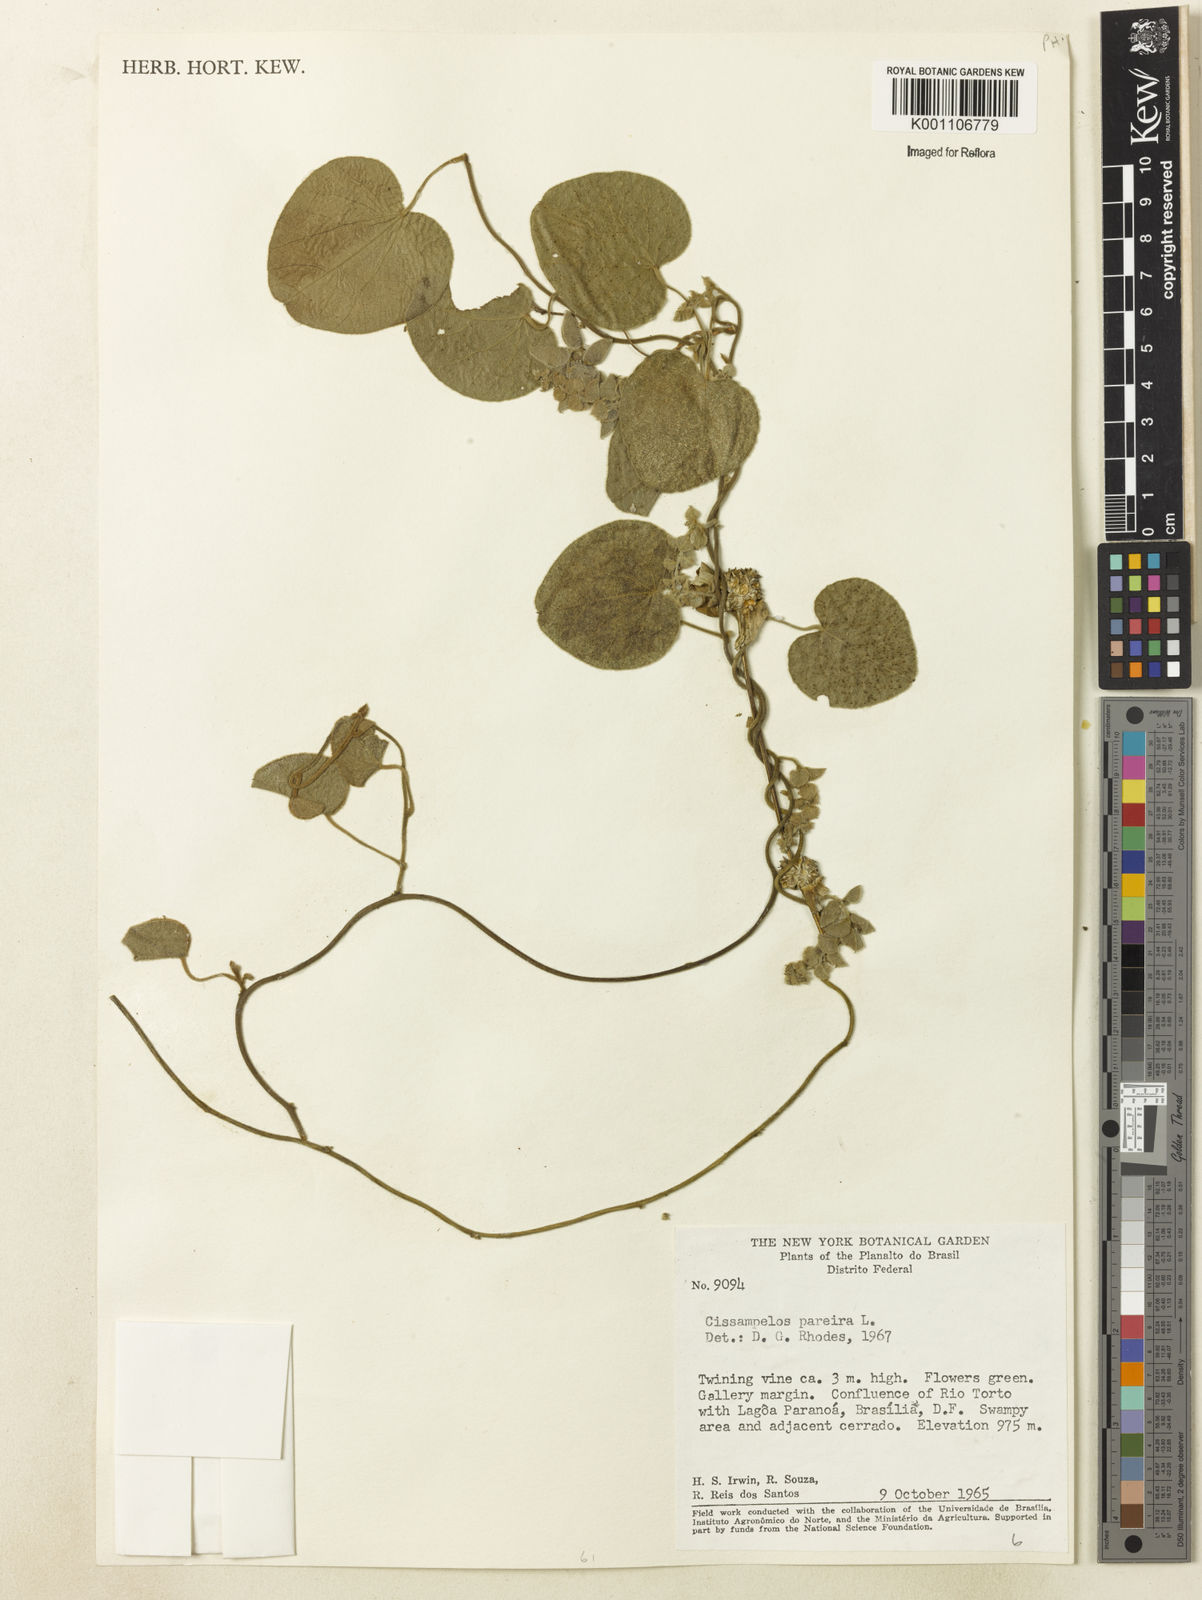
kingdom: Plantae
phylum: Tracheophyta
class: Magnoliopsida
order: Ranunculales
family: Menispermaceae
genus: Cissampelos
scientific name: Cissampelos pareira
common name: Velvetleaf
